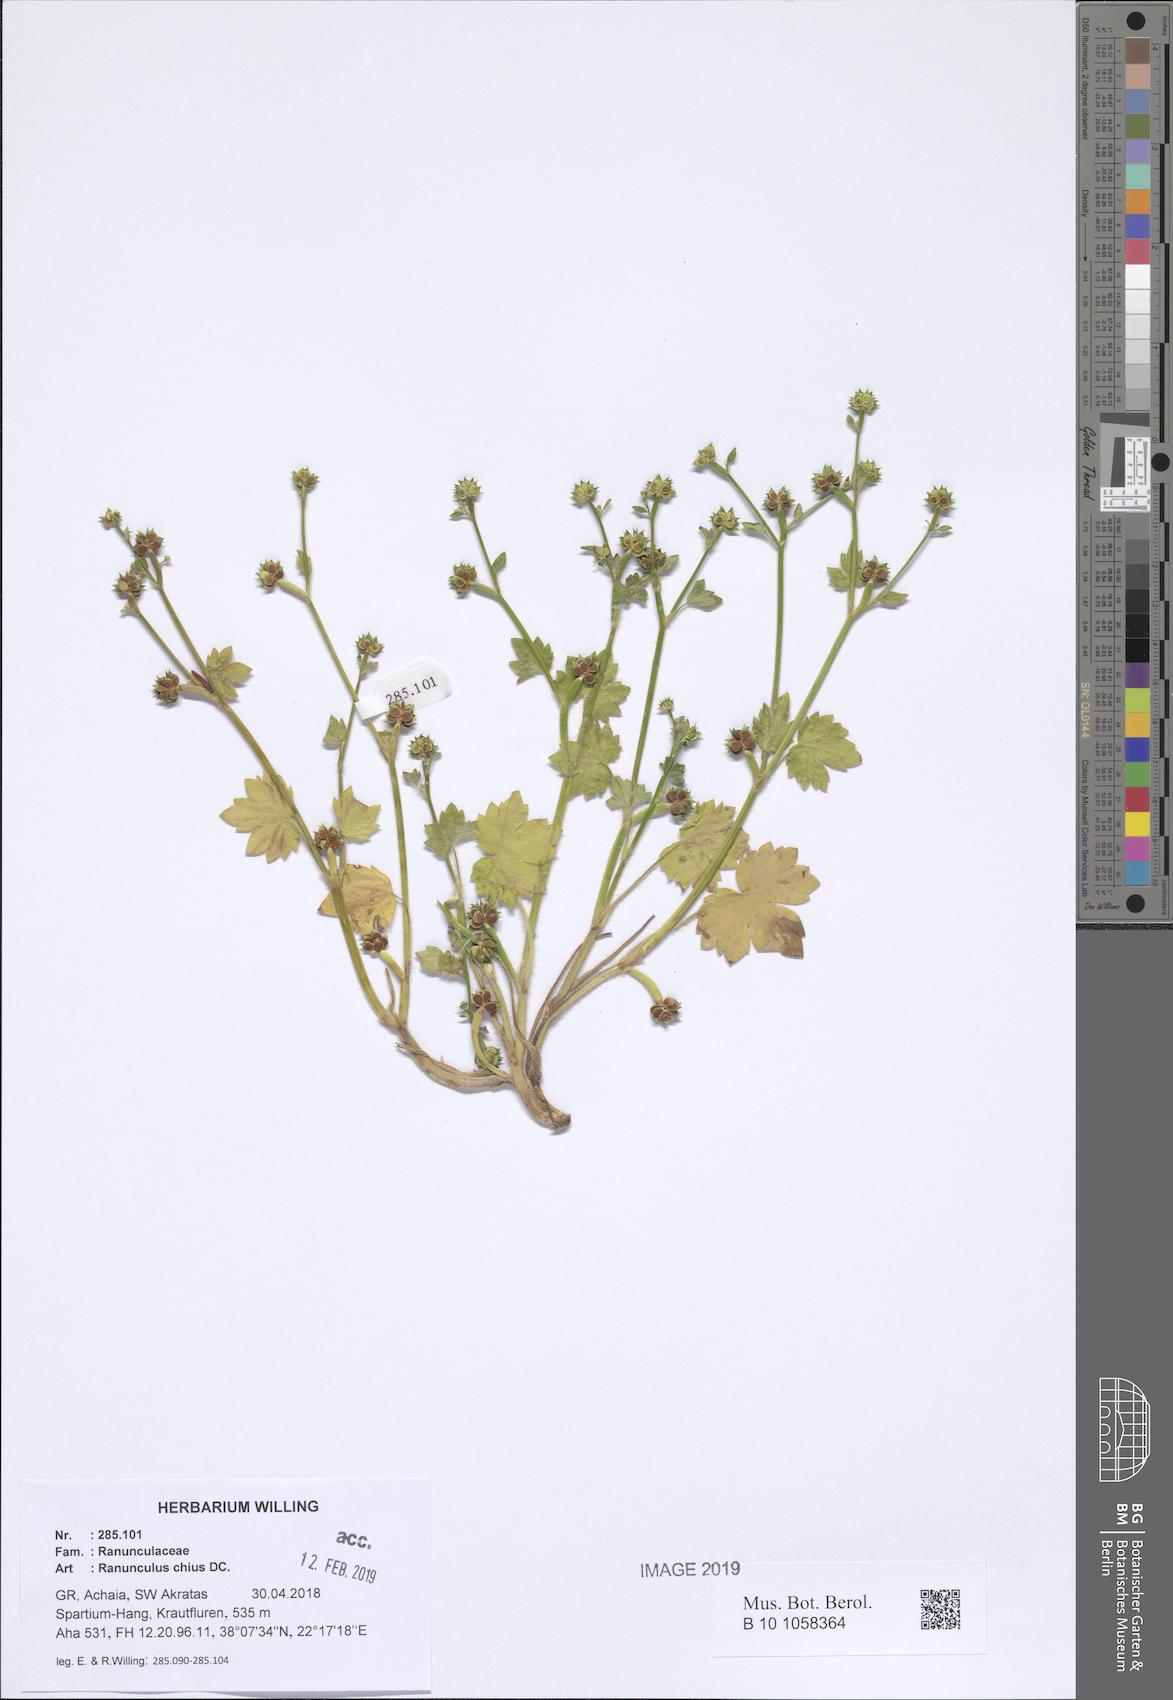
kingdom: Plantae
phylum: Tracheophyta
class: Magnoliopsida
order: Ranunculales
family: Ranunculaceae
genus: Ranunculus
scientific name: Ranunculus chius
